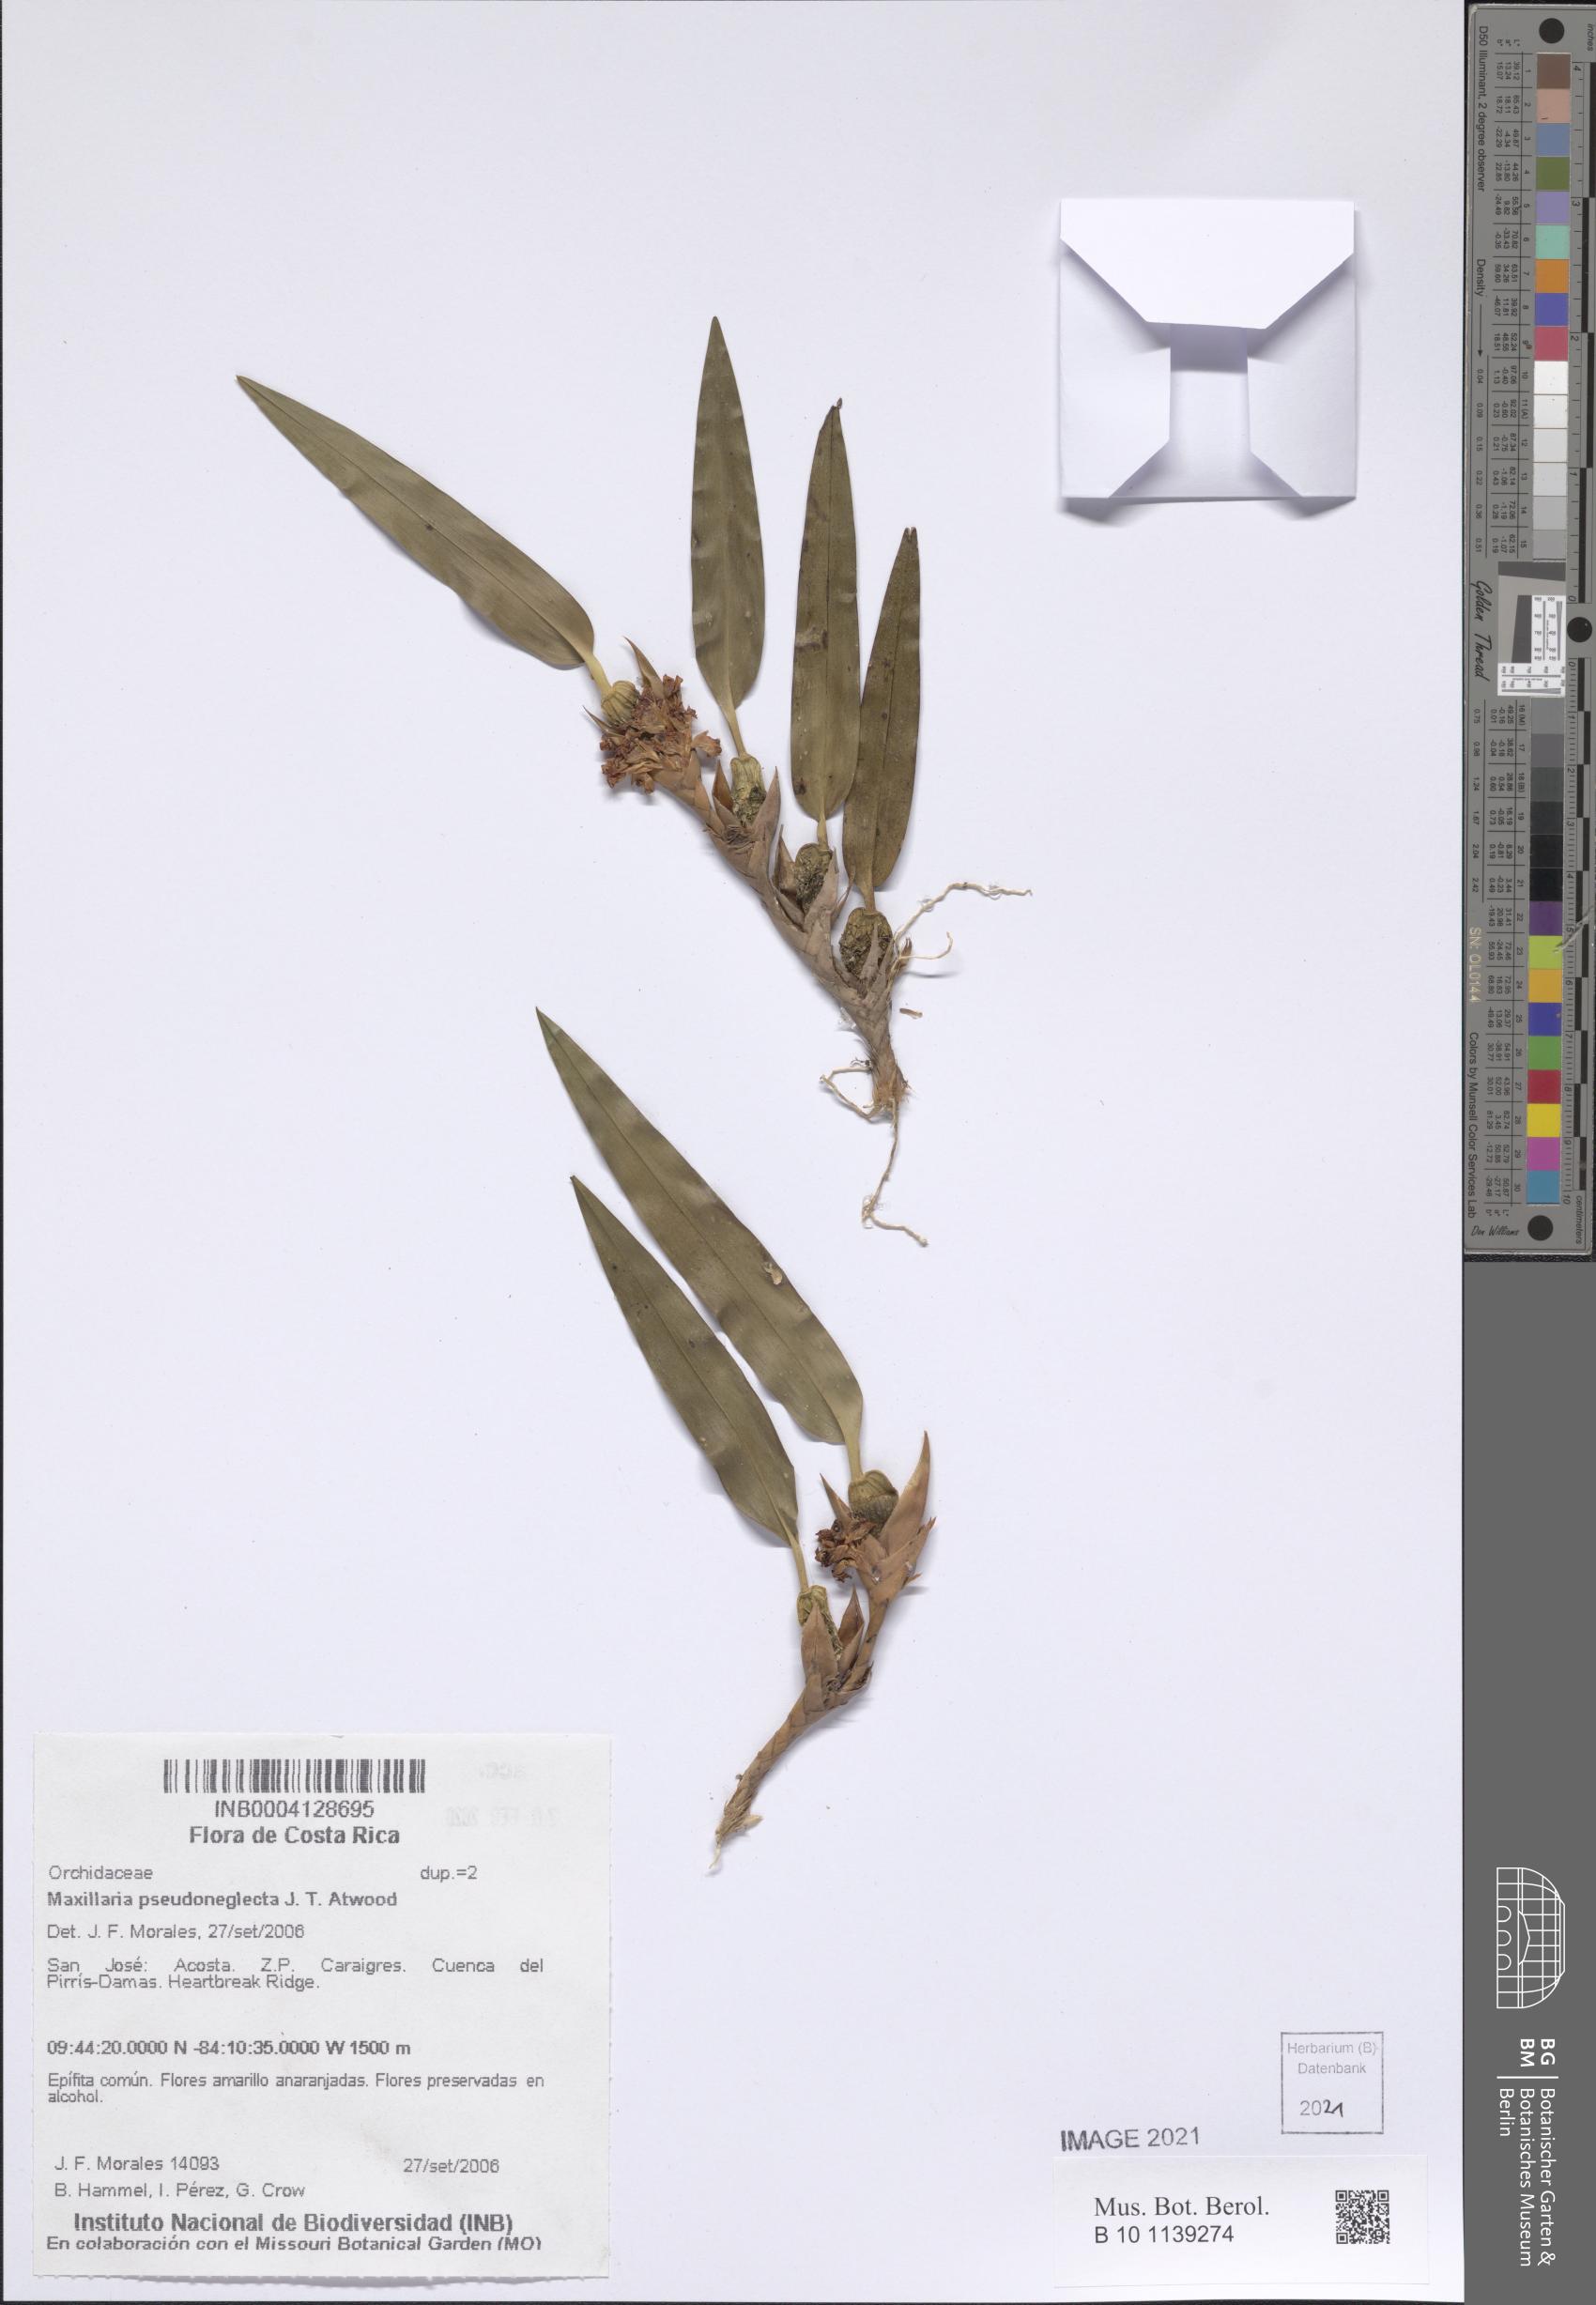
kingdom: Plantae
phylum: Tracheophyta
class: Liliopsida
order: Asparagales
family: Orchidaceae
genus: Maxillaria
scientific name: Maxillaria pseudoneglecta
